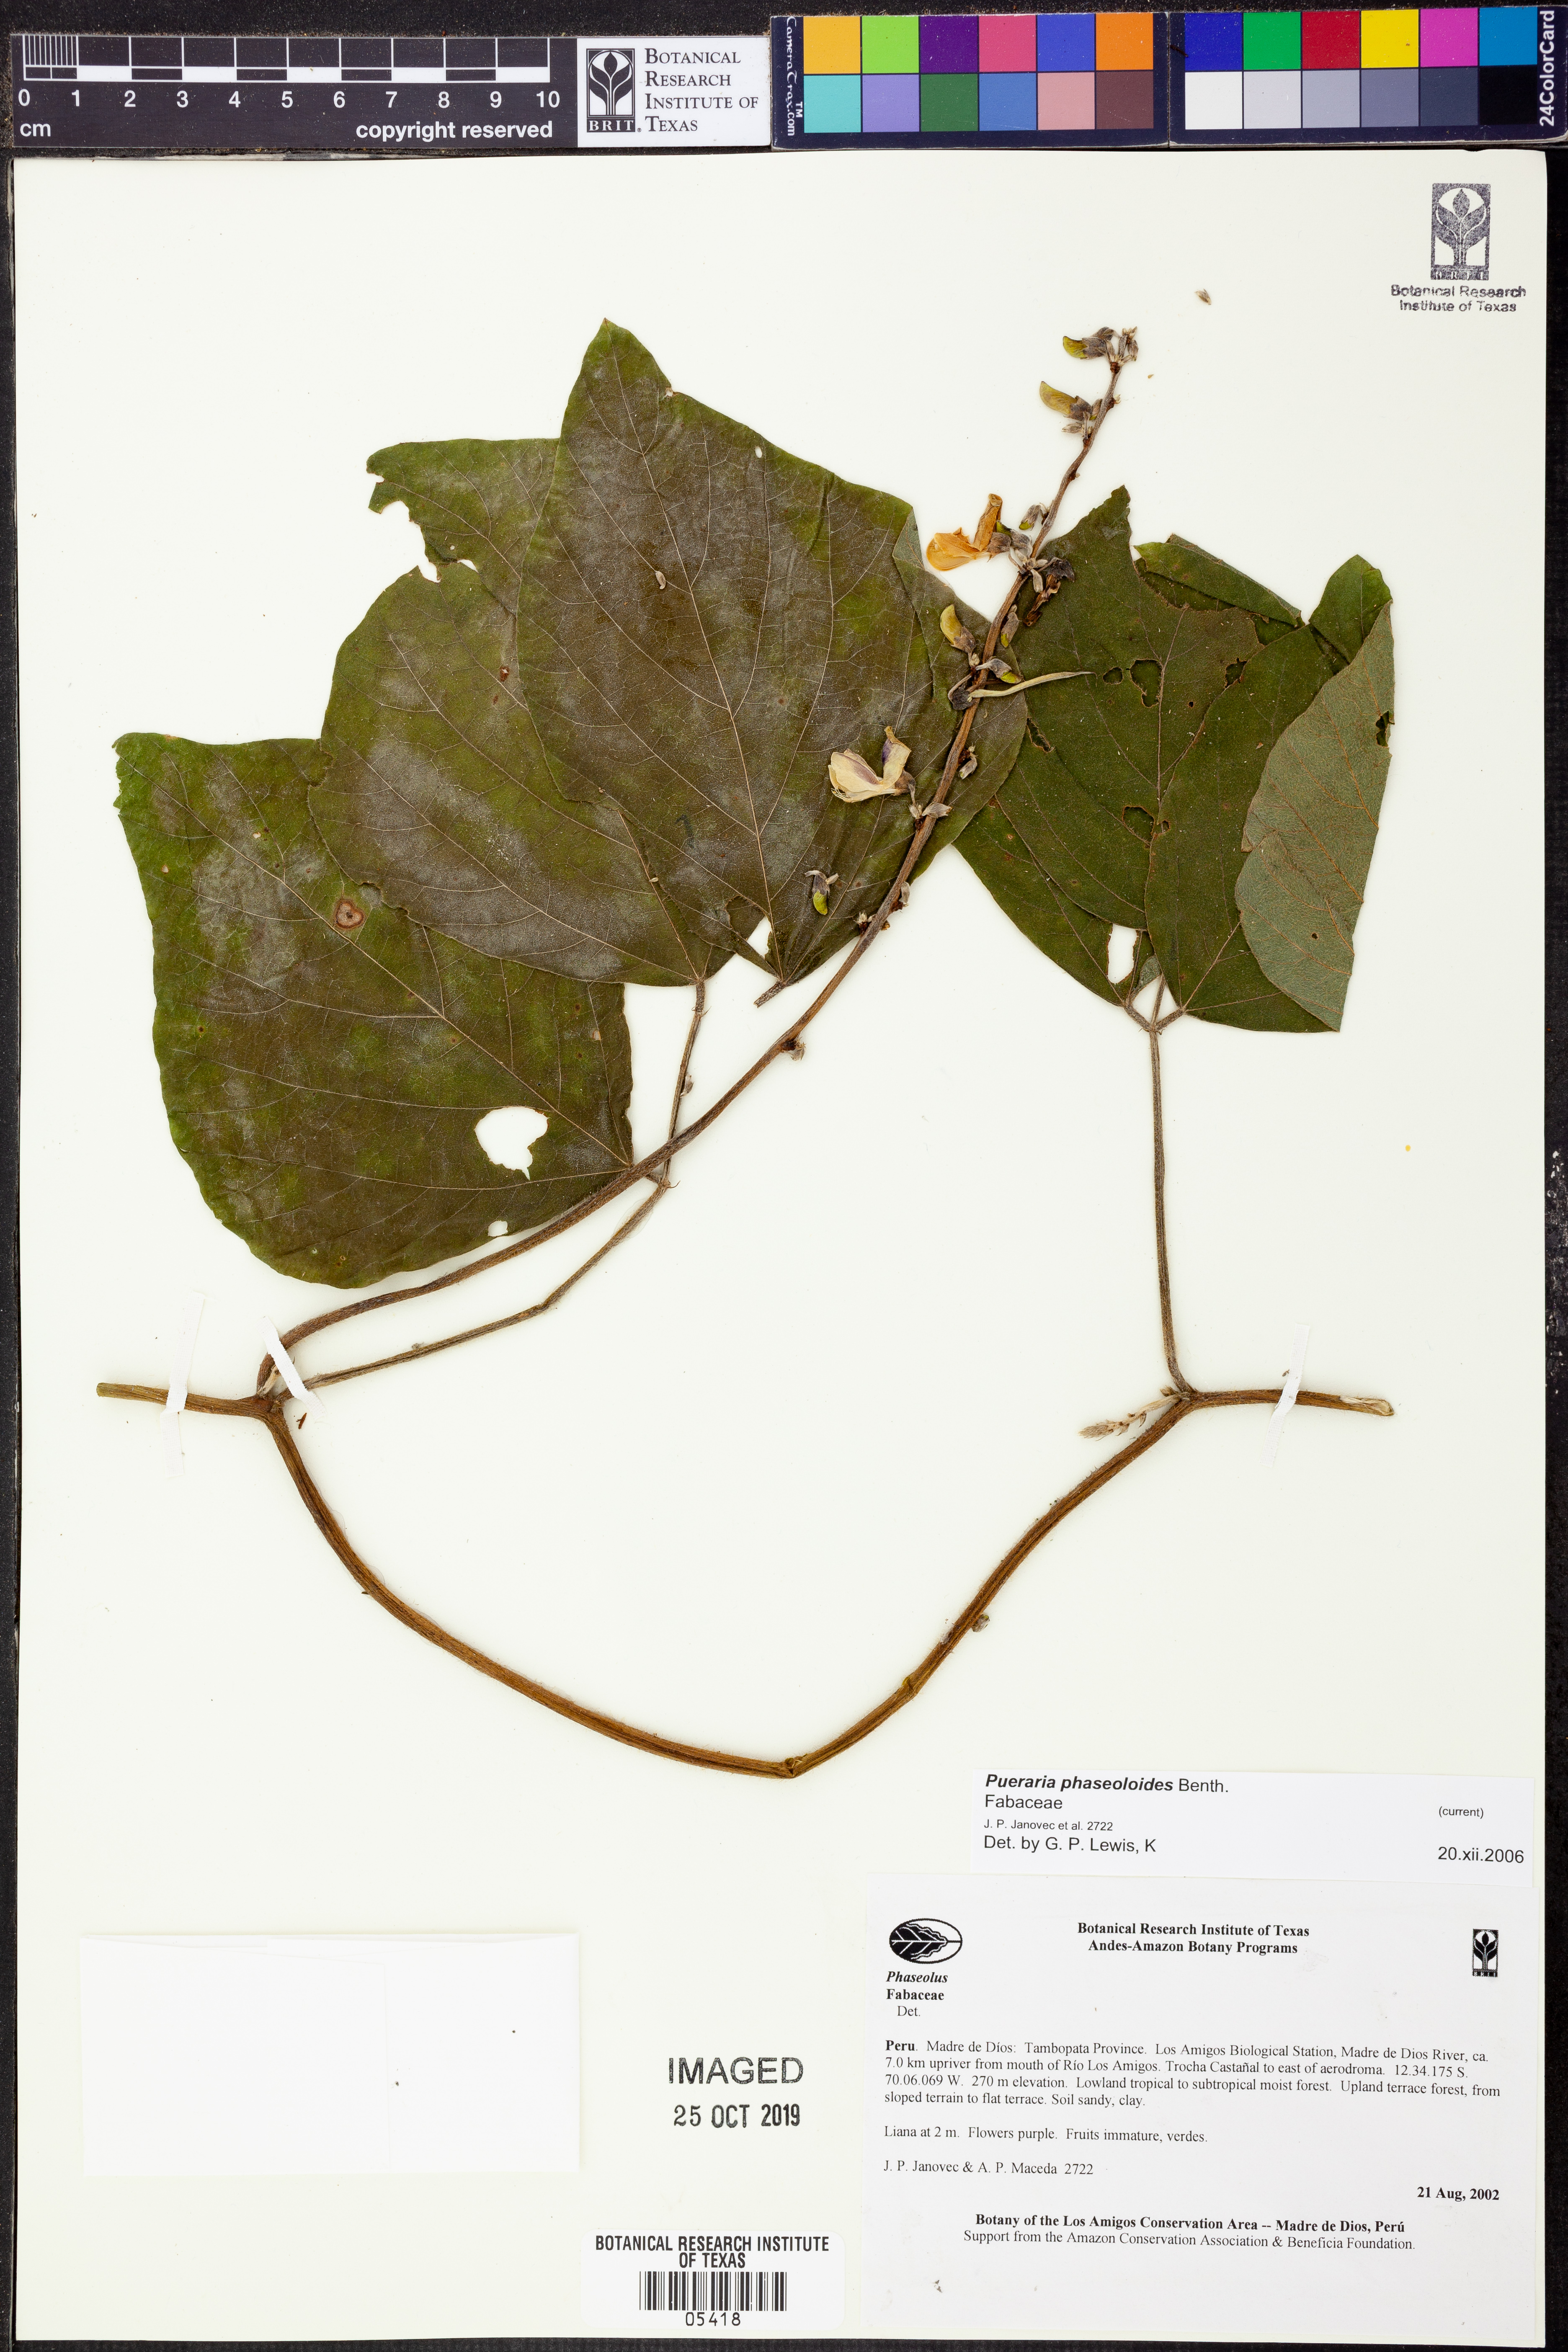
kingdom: Plantae
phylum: Tracheophyta
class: Magnoliopsida
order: Fabales
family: Fabaceae
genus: Pueraria
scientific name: Pueraria
